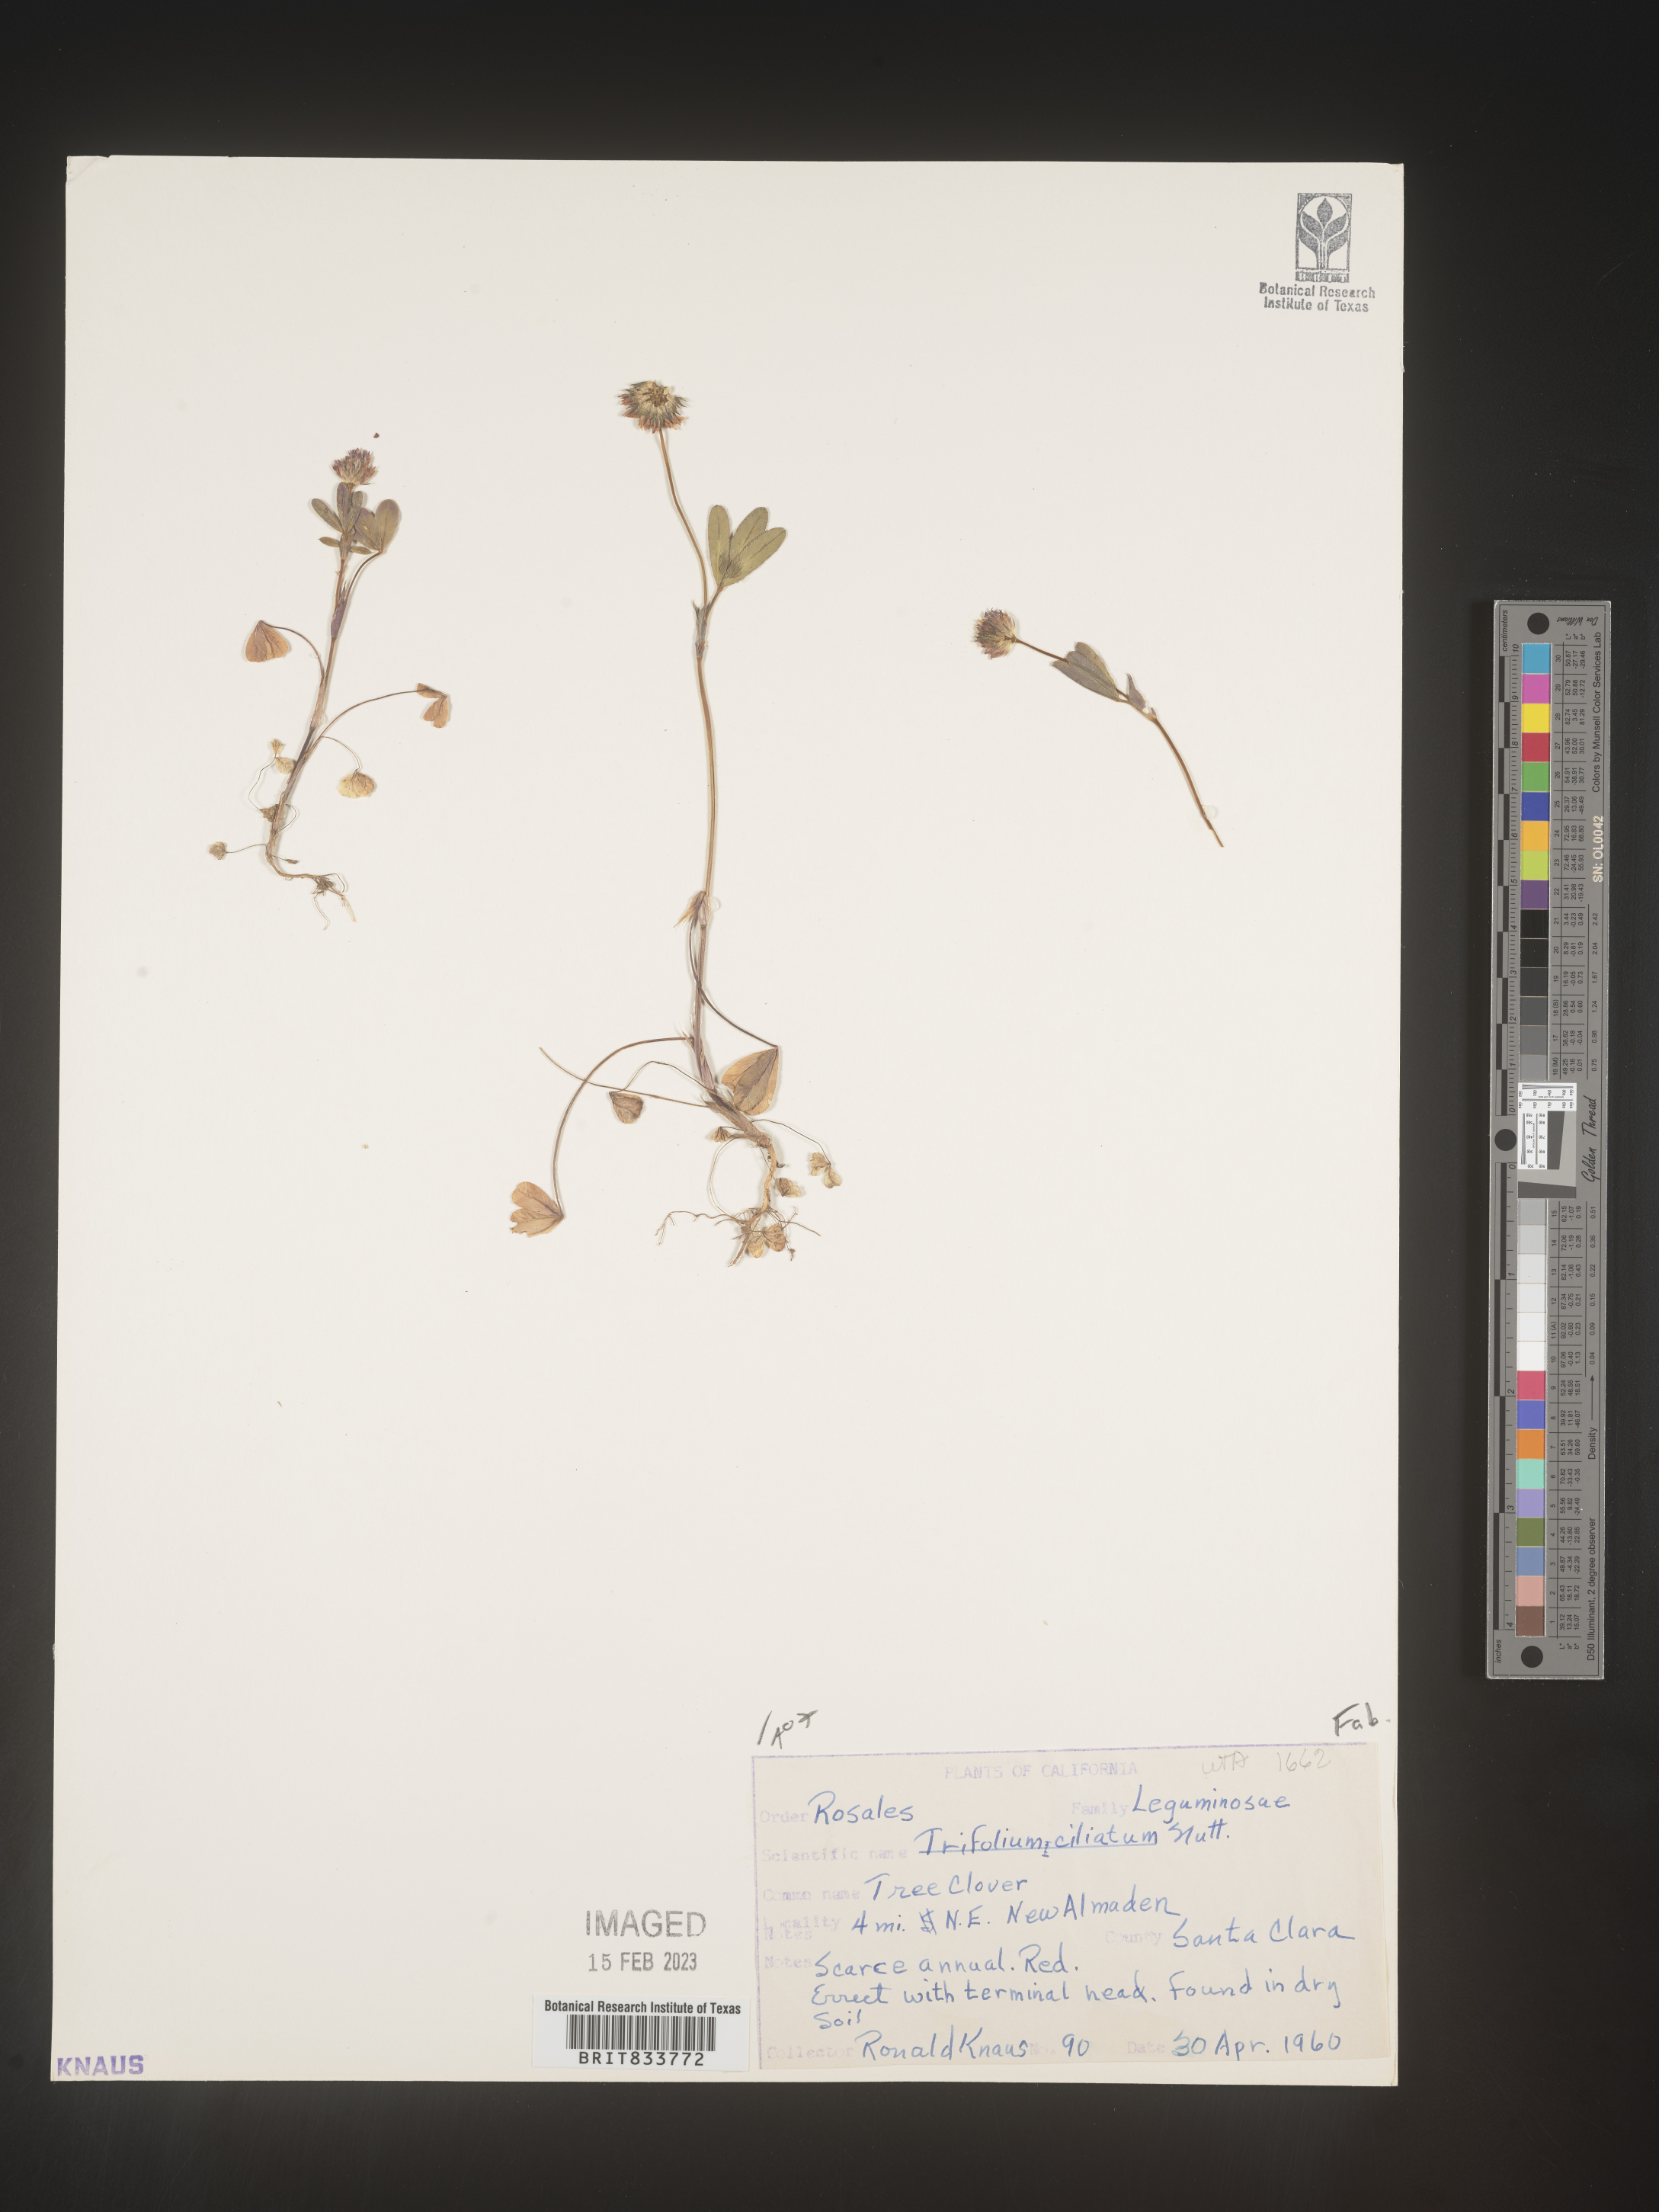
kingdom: Plantae
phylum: Tracheophyta
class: Magnoliopsida
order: Fabales
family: Fabaceae
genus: Trifolium
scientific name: Trifolium
